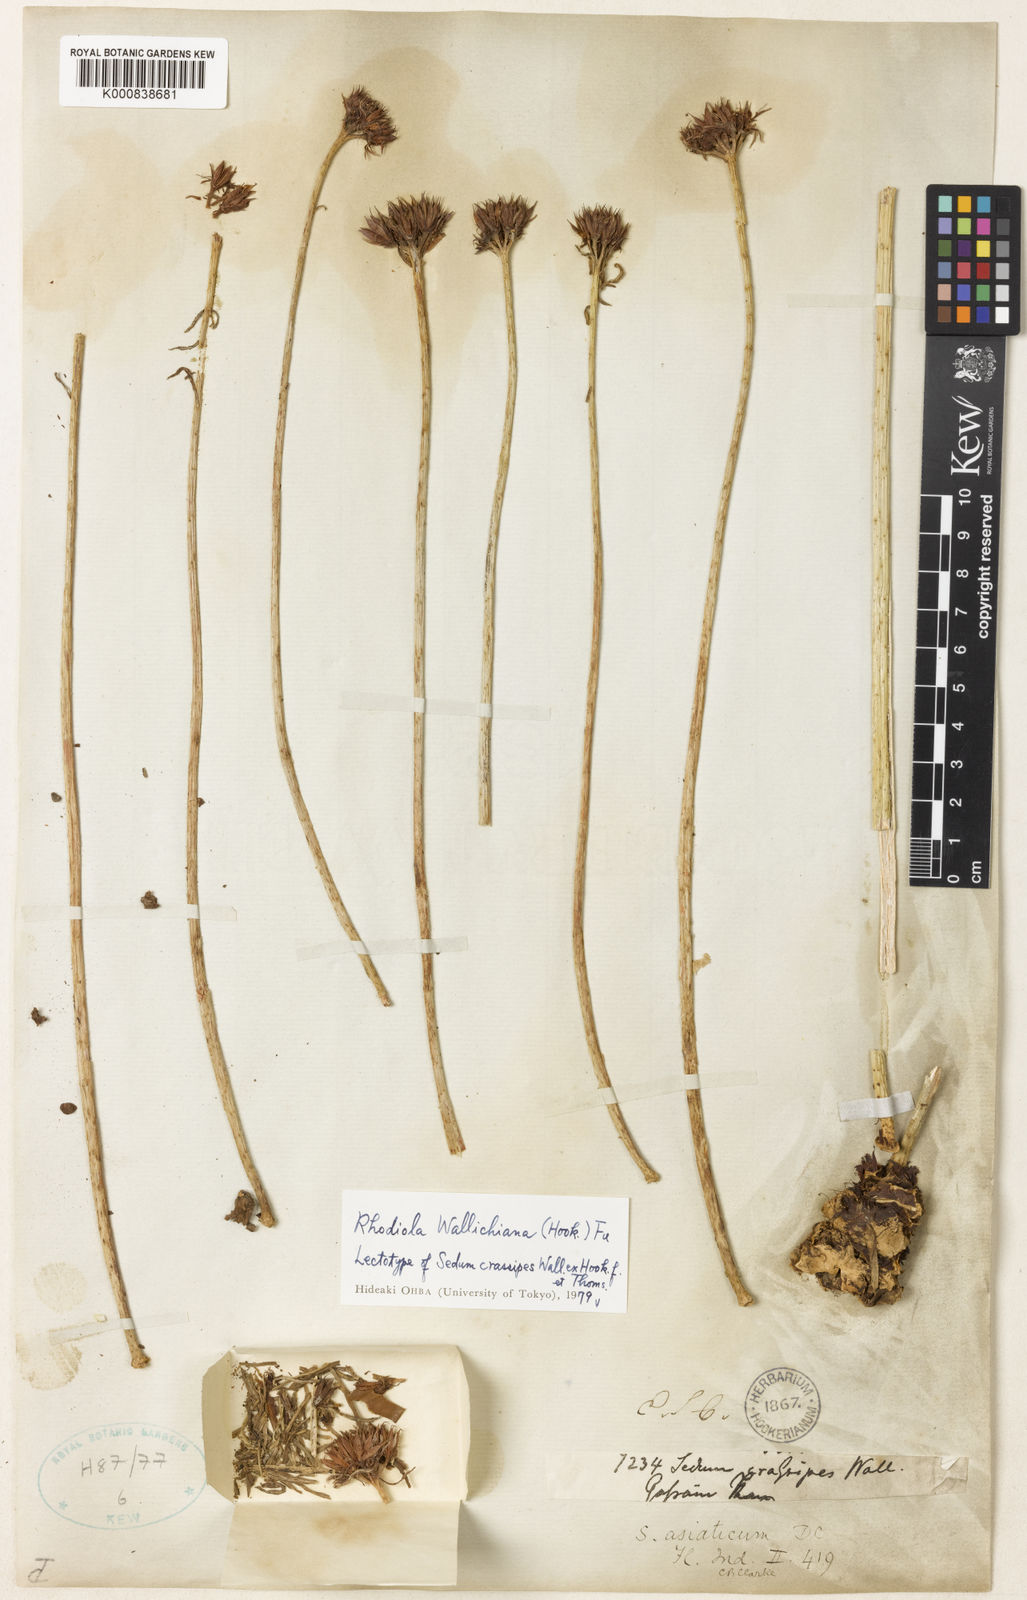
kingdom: Plantae
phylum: Tracheophyta
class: Magnoliopsida
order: Saxifragales
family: Crassulaceae
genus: Rhodiola
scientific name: Rhodiola wallichiana
